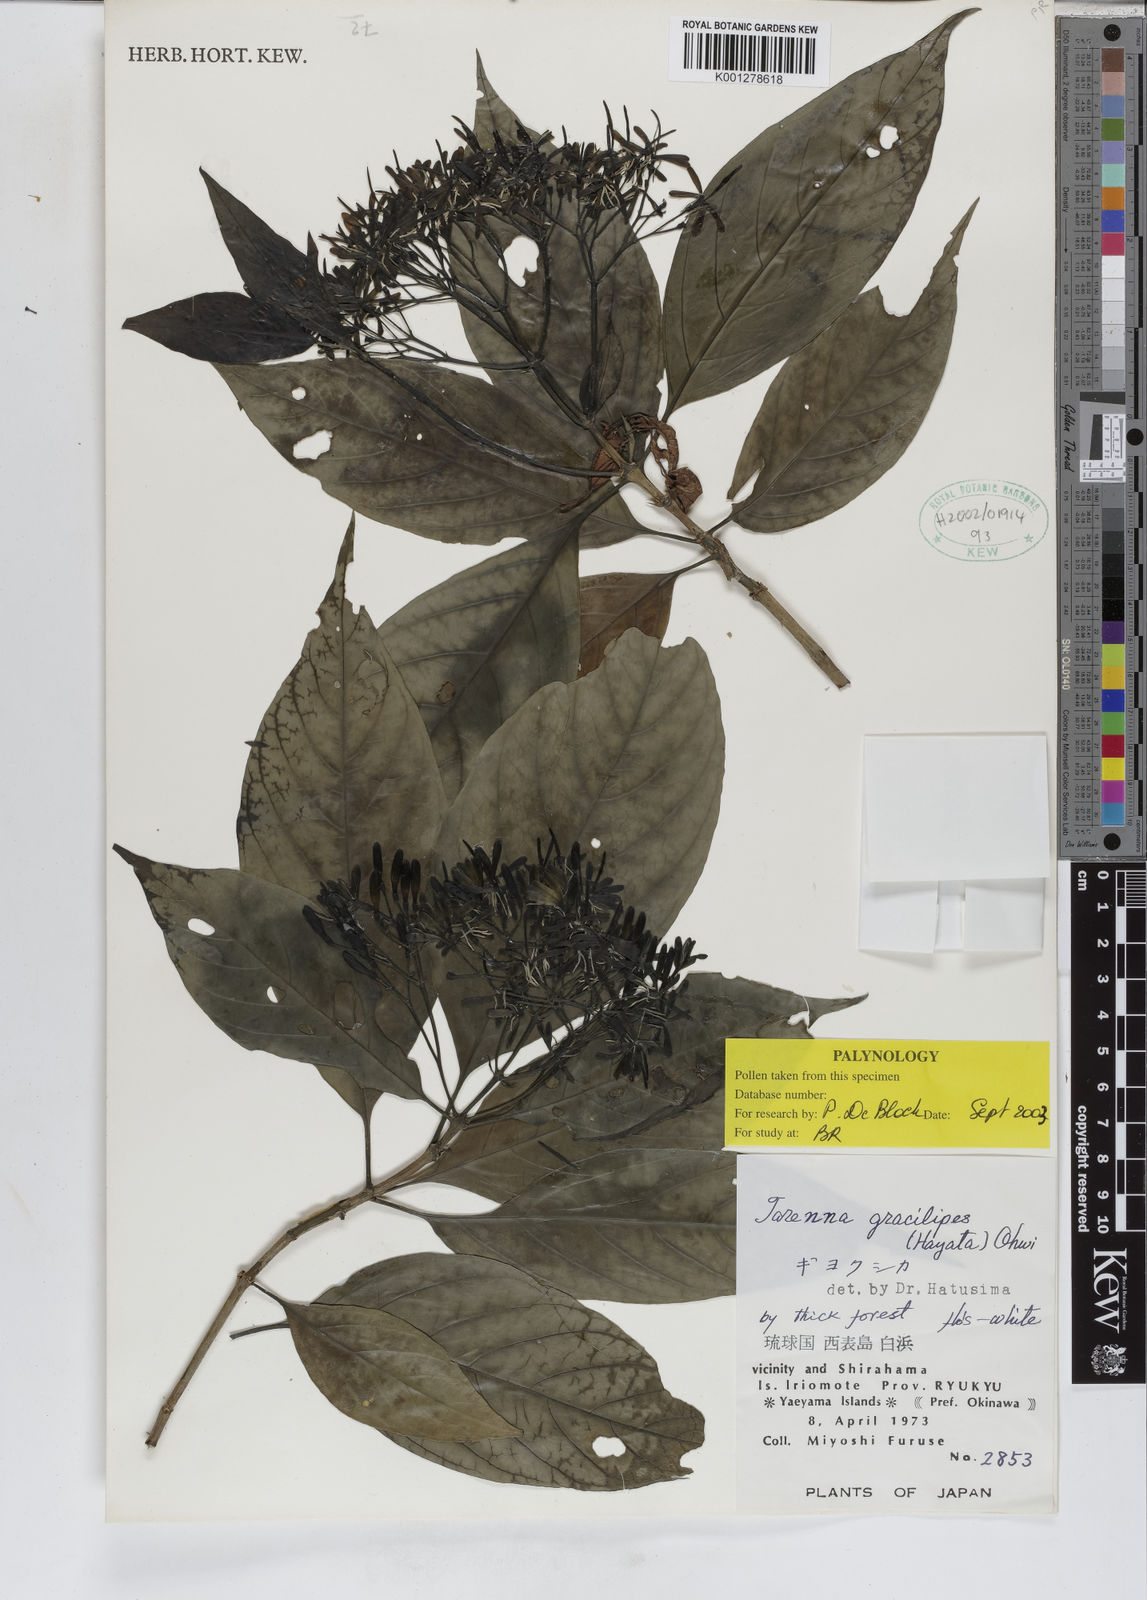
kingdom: Plantae
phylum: Tracheophyta
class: Magnoliopsida
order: Gentianales
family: Rubiaceae
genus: Tarenna
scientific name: Tarenna gracilipes
